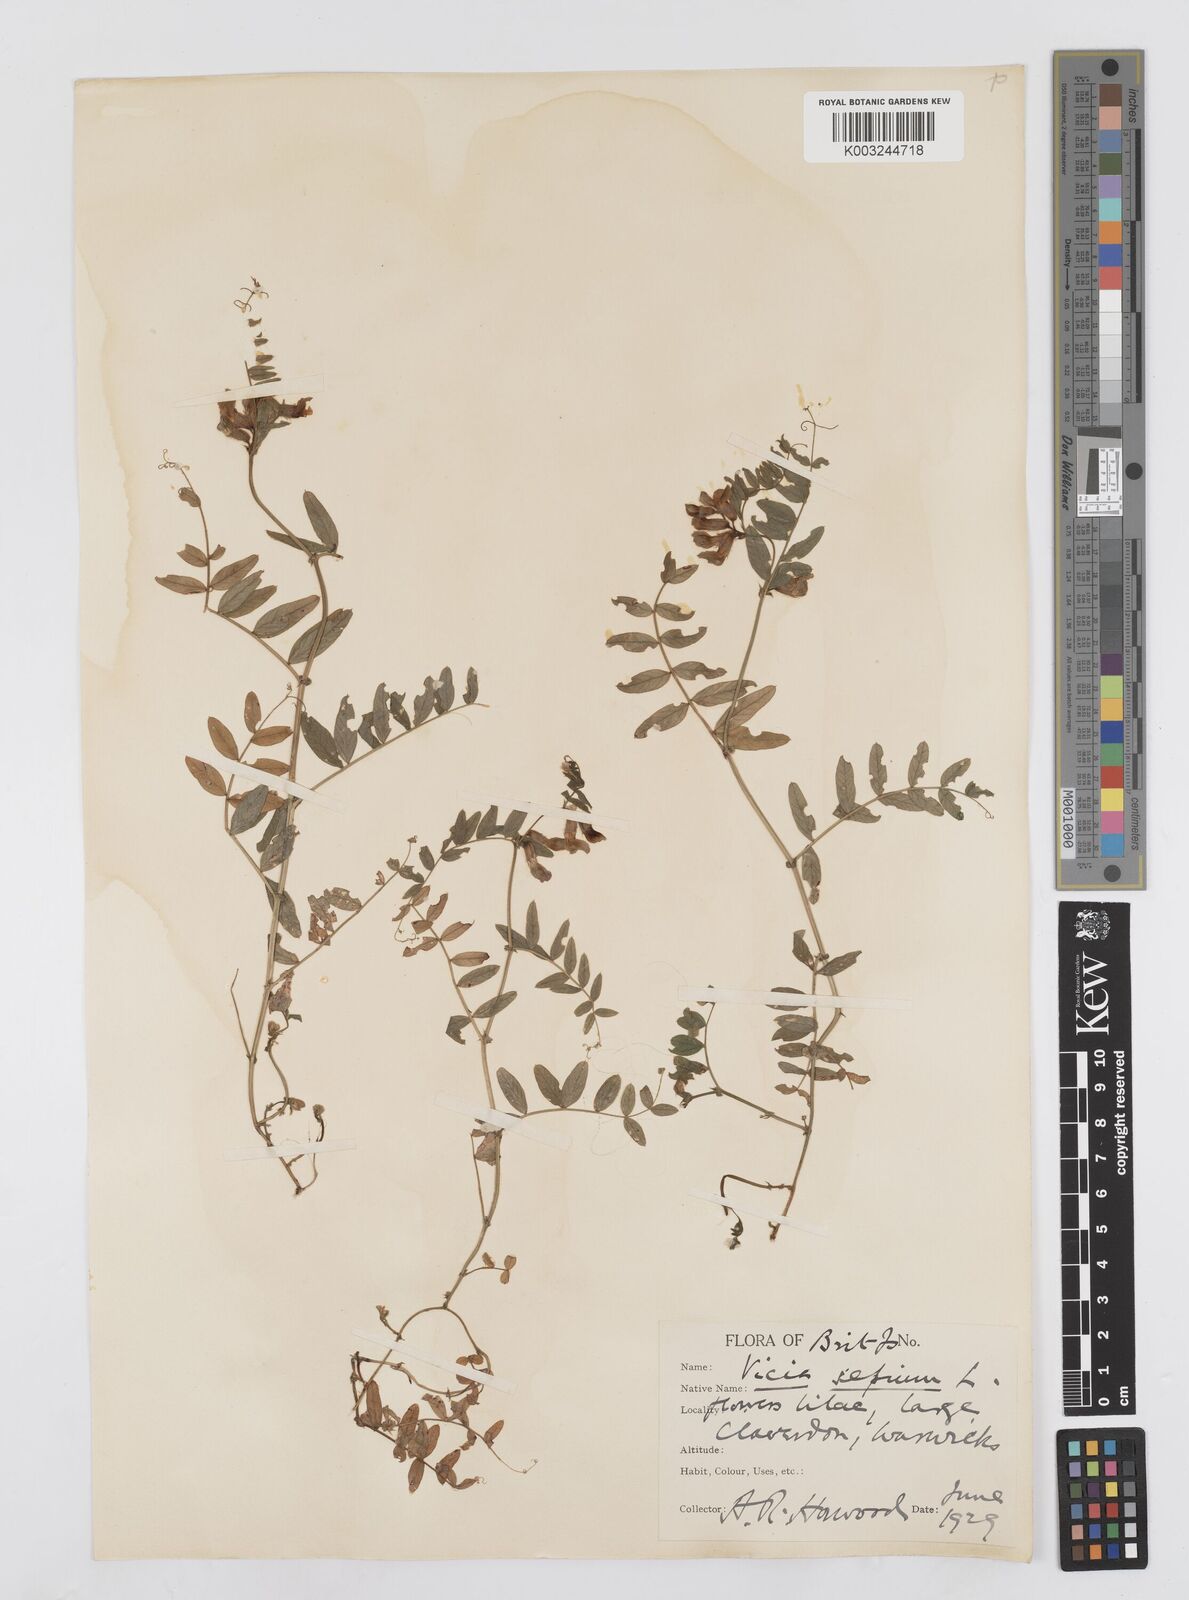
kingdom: Plantae
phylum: Tracheophyta
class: Magnoliopsida
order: Fabales
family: Fabaceae
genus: Vicia
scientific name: Vicia sepium
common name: Bush vetch
